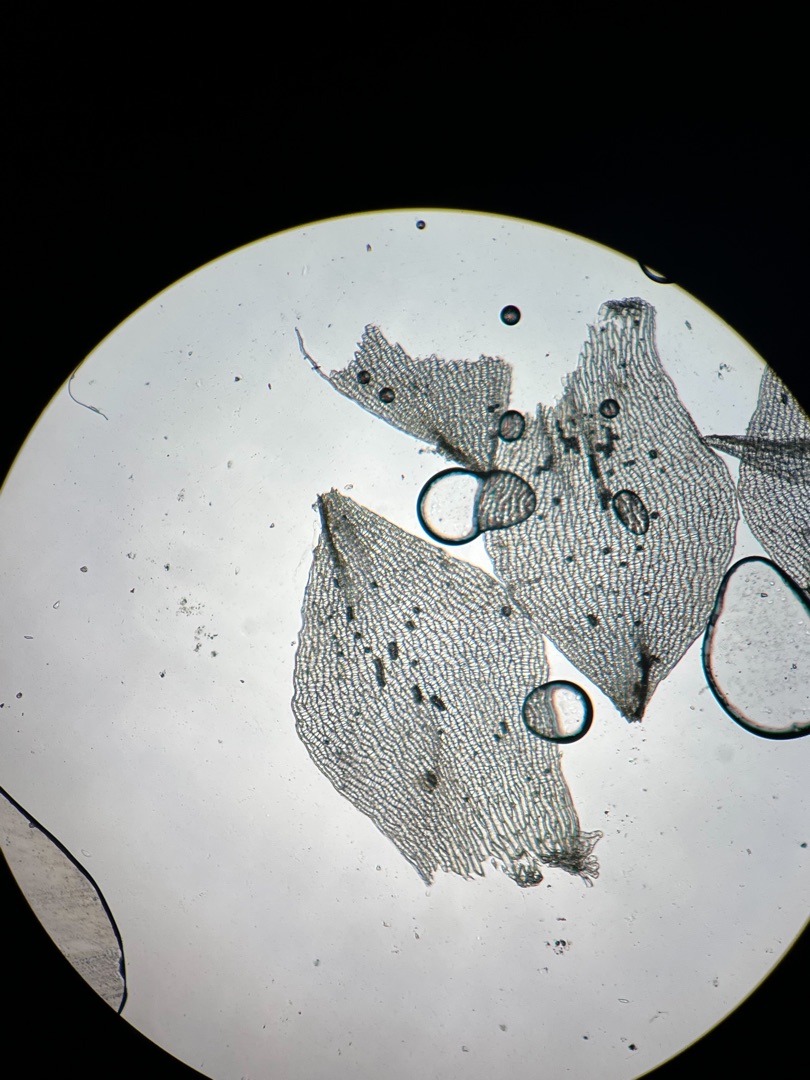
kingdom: Plantae
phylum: Bryophyta
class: Sphagnopsida
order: Sphagnales
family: Sphagnaceae
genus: Sphagnum
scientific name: Sphagnum molle
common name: Blød tørvemos
